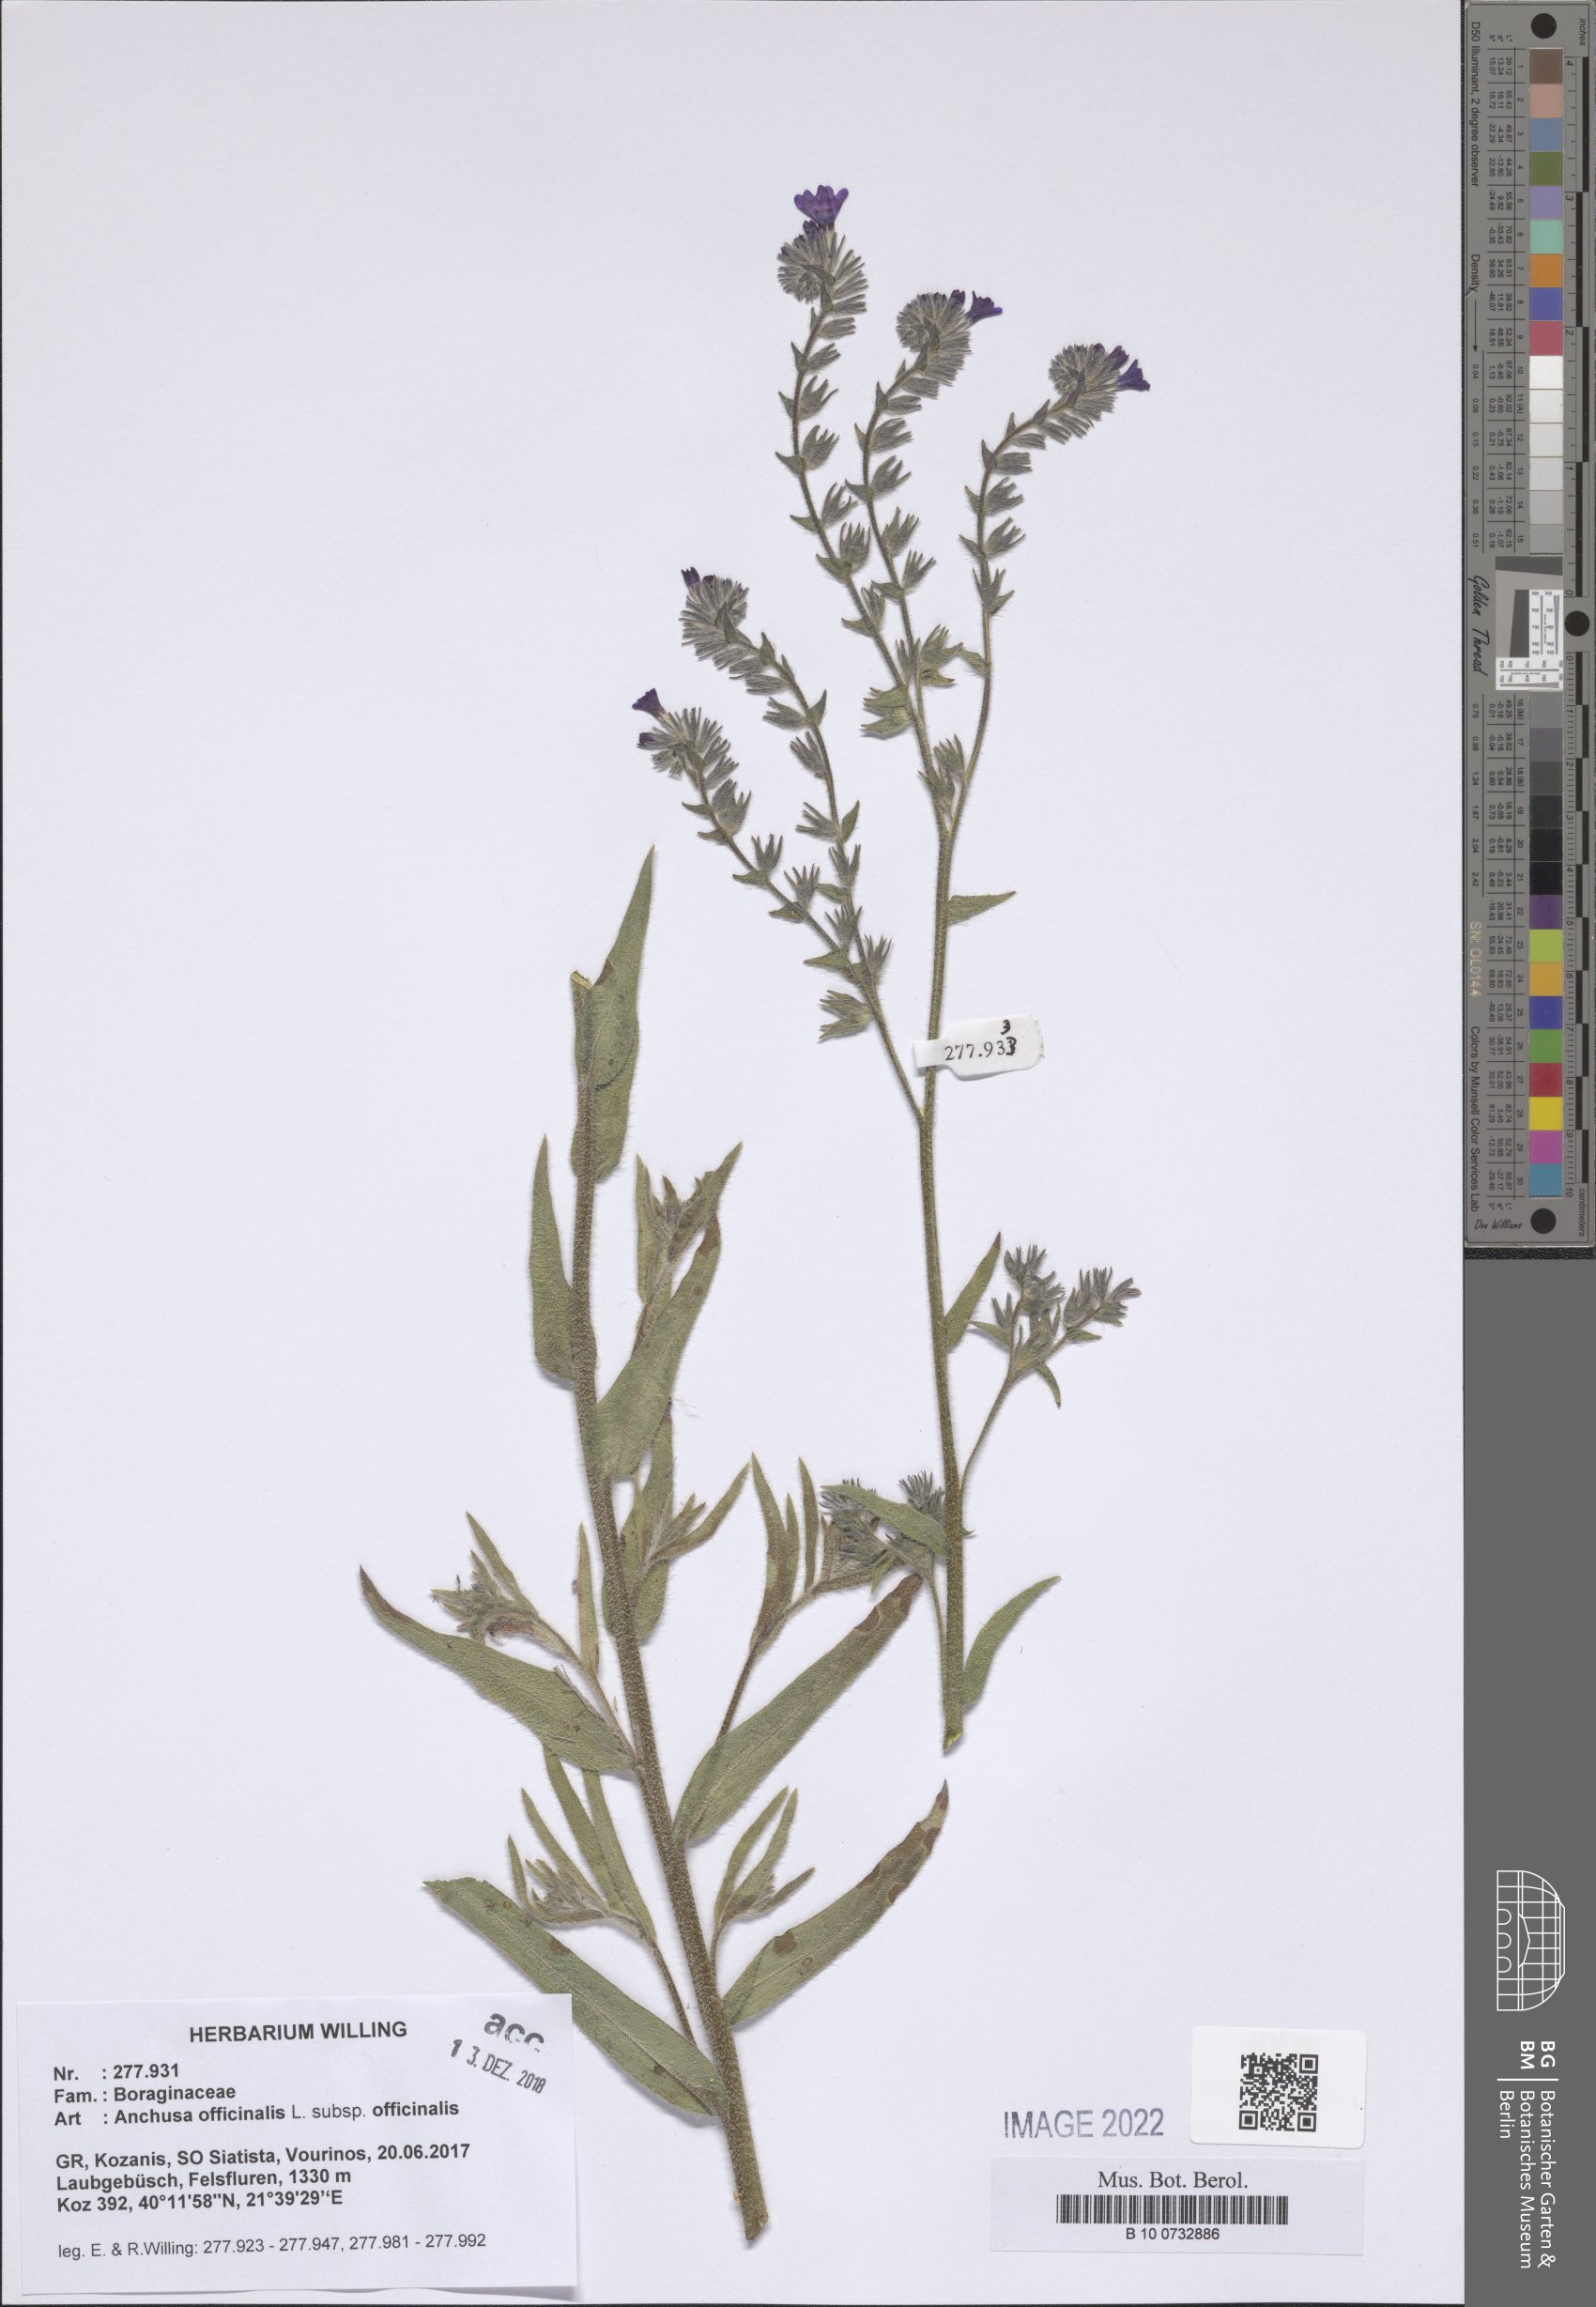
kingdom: Plantae
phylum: Tracheophyta
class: Magnoliopsida
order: Boraginales
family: Boraginaceae
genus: Anchusa
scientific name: Anchusa officinalis
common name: Alkanet
